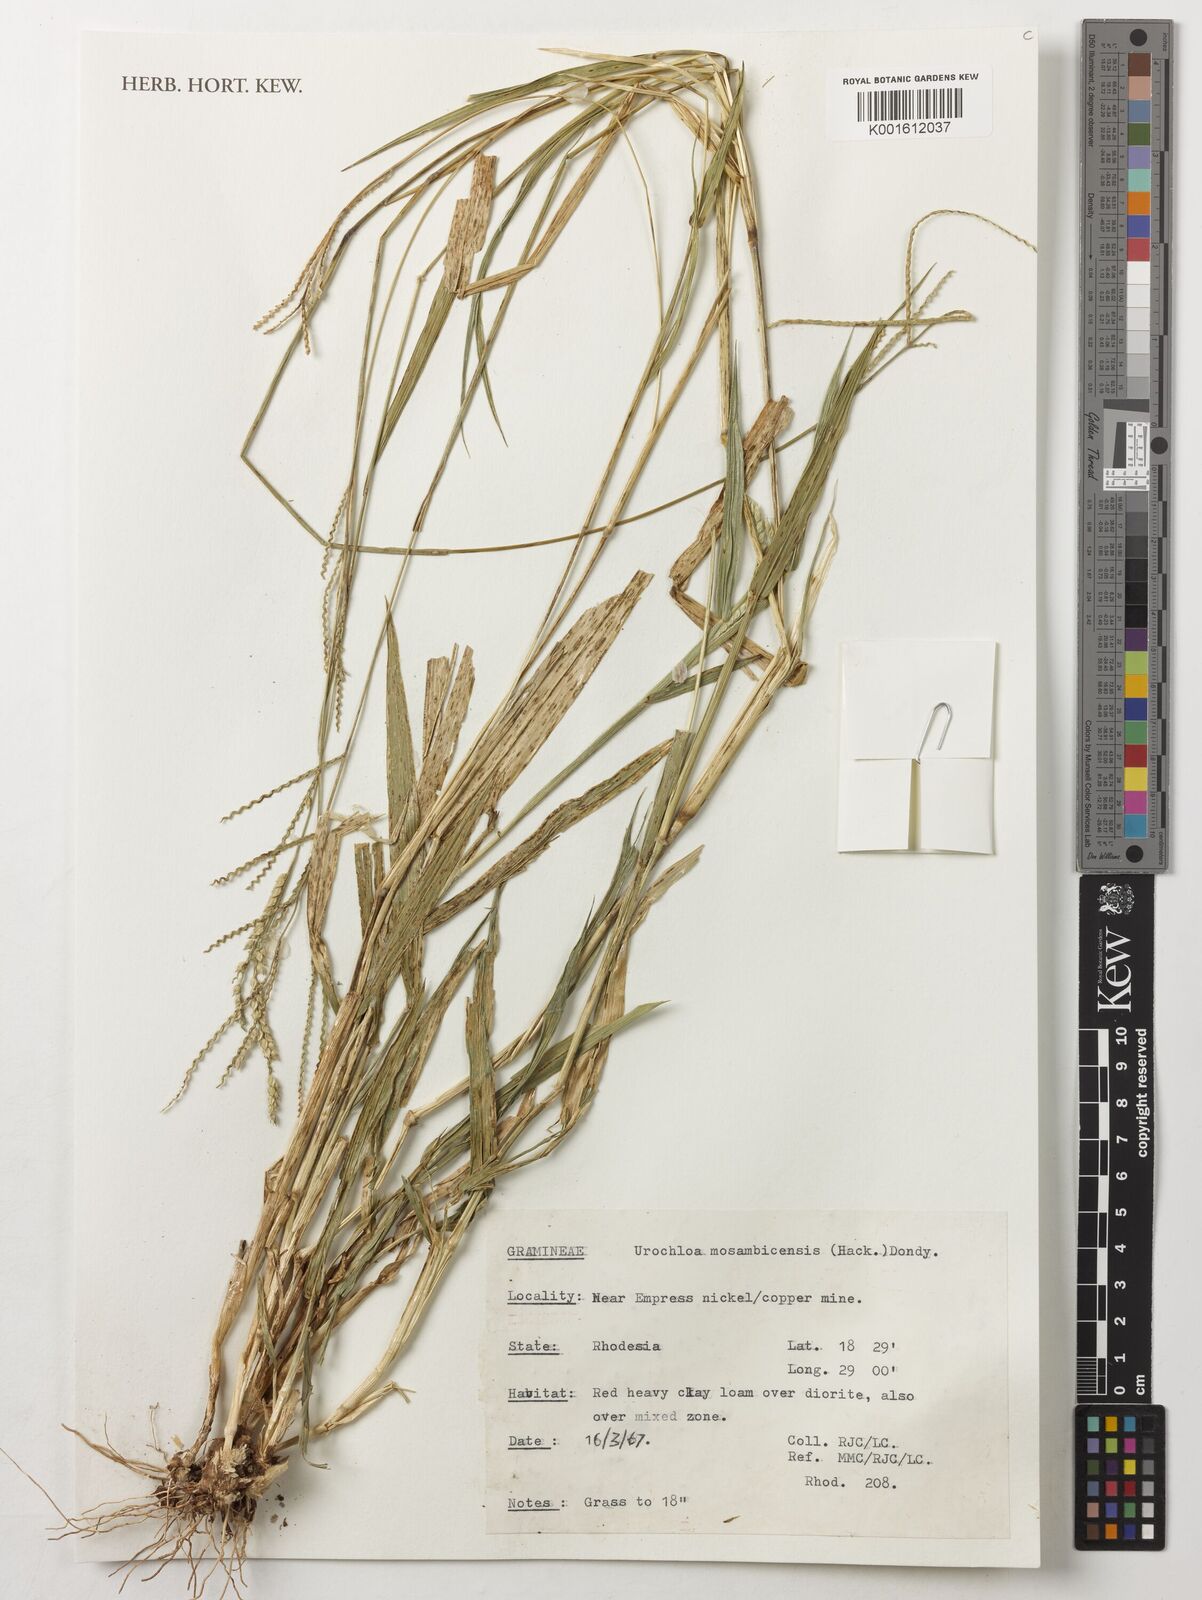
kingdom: Plantae
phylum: Tracheophyta
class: Liliopsida
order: Poales
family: Poaceae
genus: Urochloa
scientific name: Urochloa trichopus
